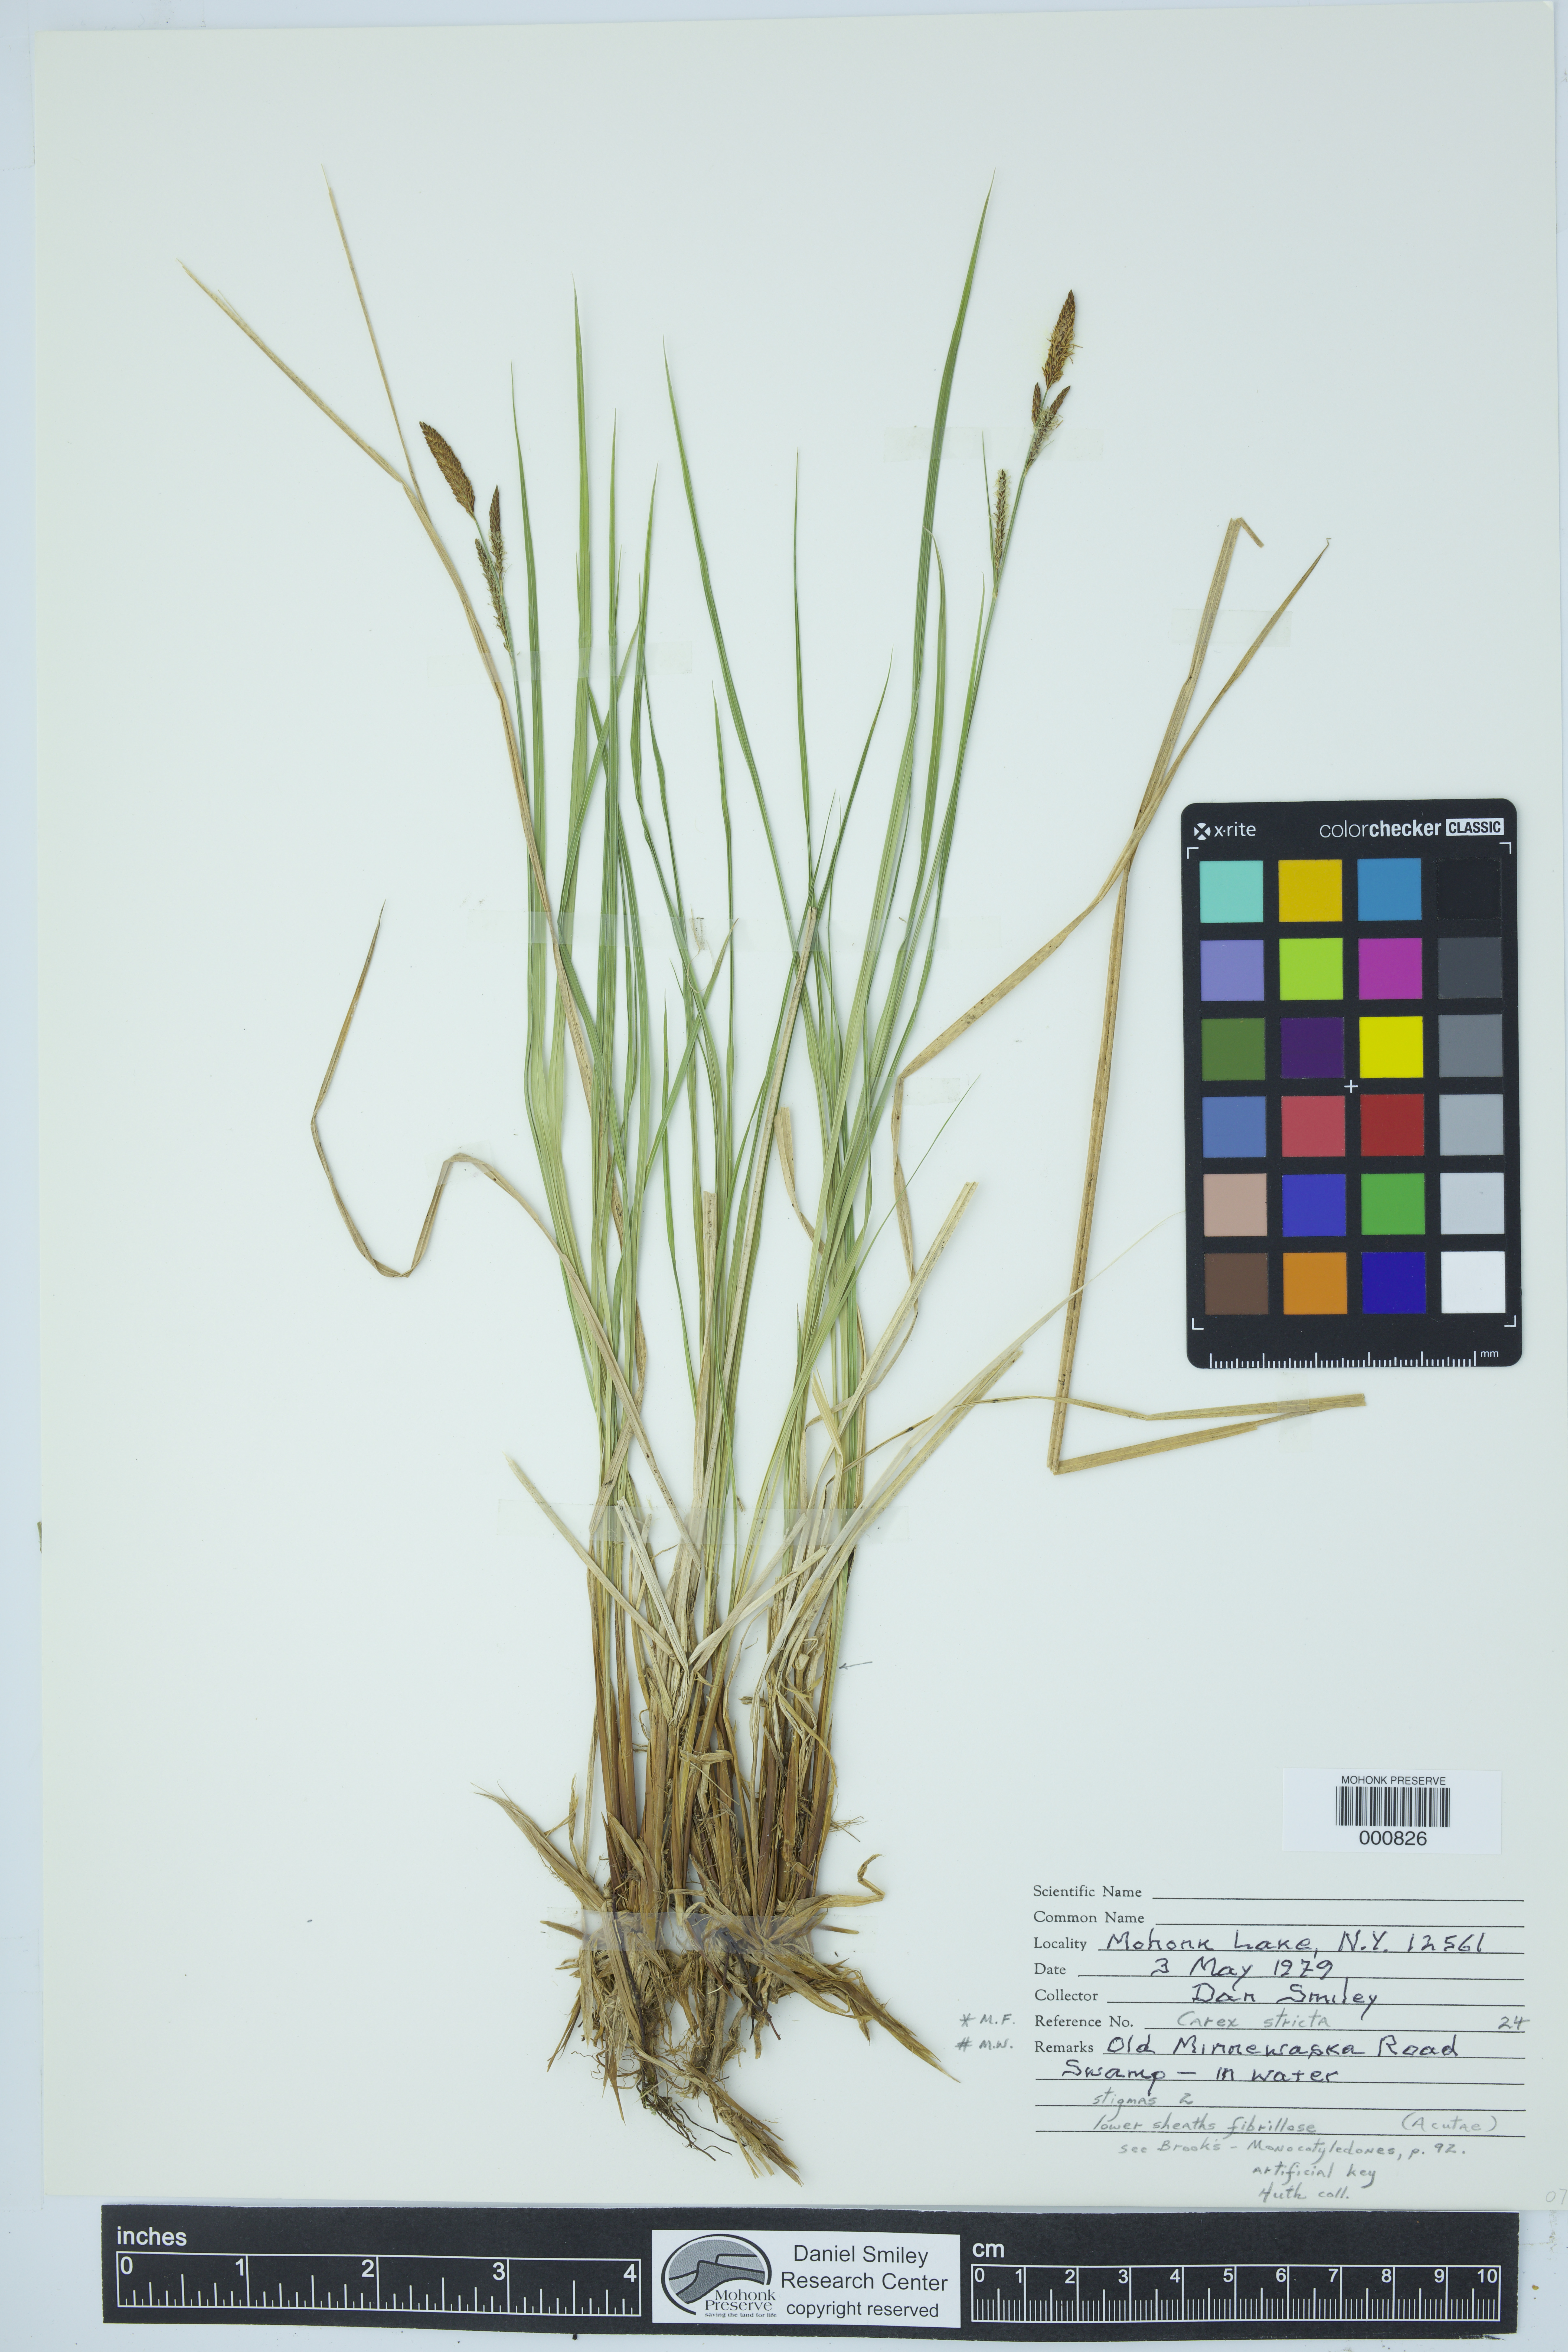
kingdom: Plantae
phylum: Tracheophyta
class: Liliopsida
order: Poales
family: Cyperaceae
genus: Carex
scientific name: Carex stricta
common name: Hummock sedge
